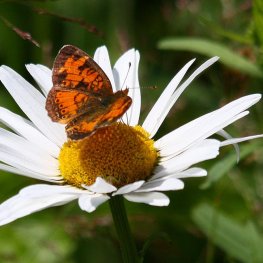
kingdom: Animalia
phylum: Arthropoda
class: Insecta
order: Lepidoptera
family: Nymphalidae
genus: Phyciodes
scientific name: Phyciodes tharos
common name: Northern Crescent
